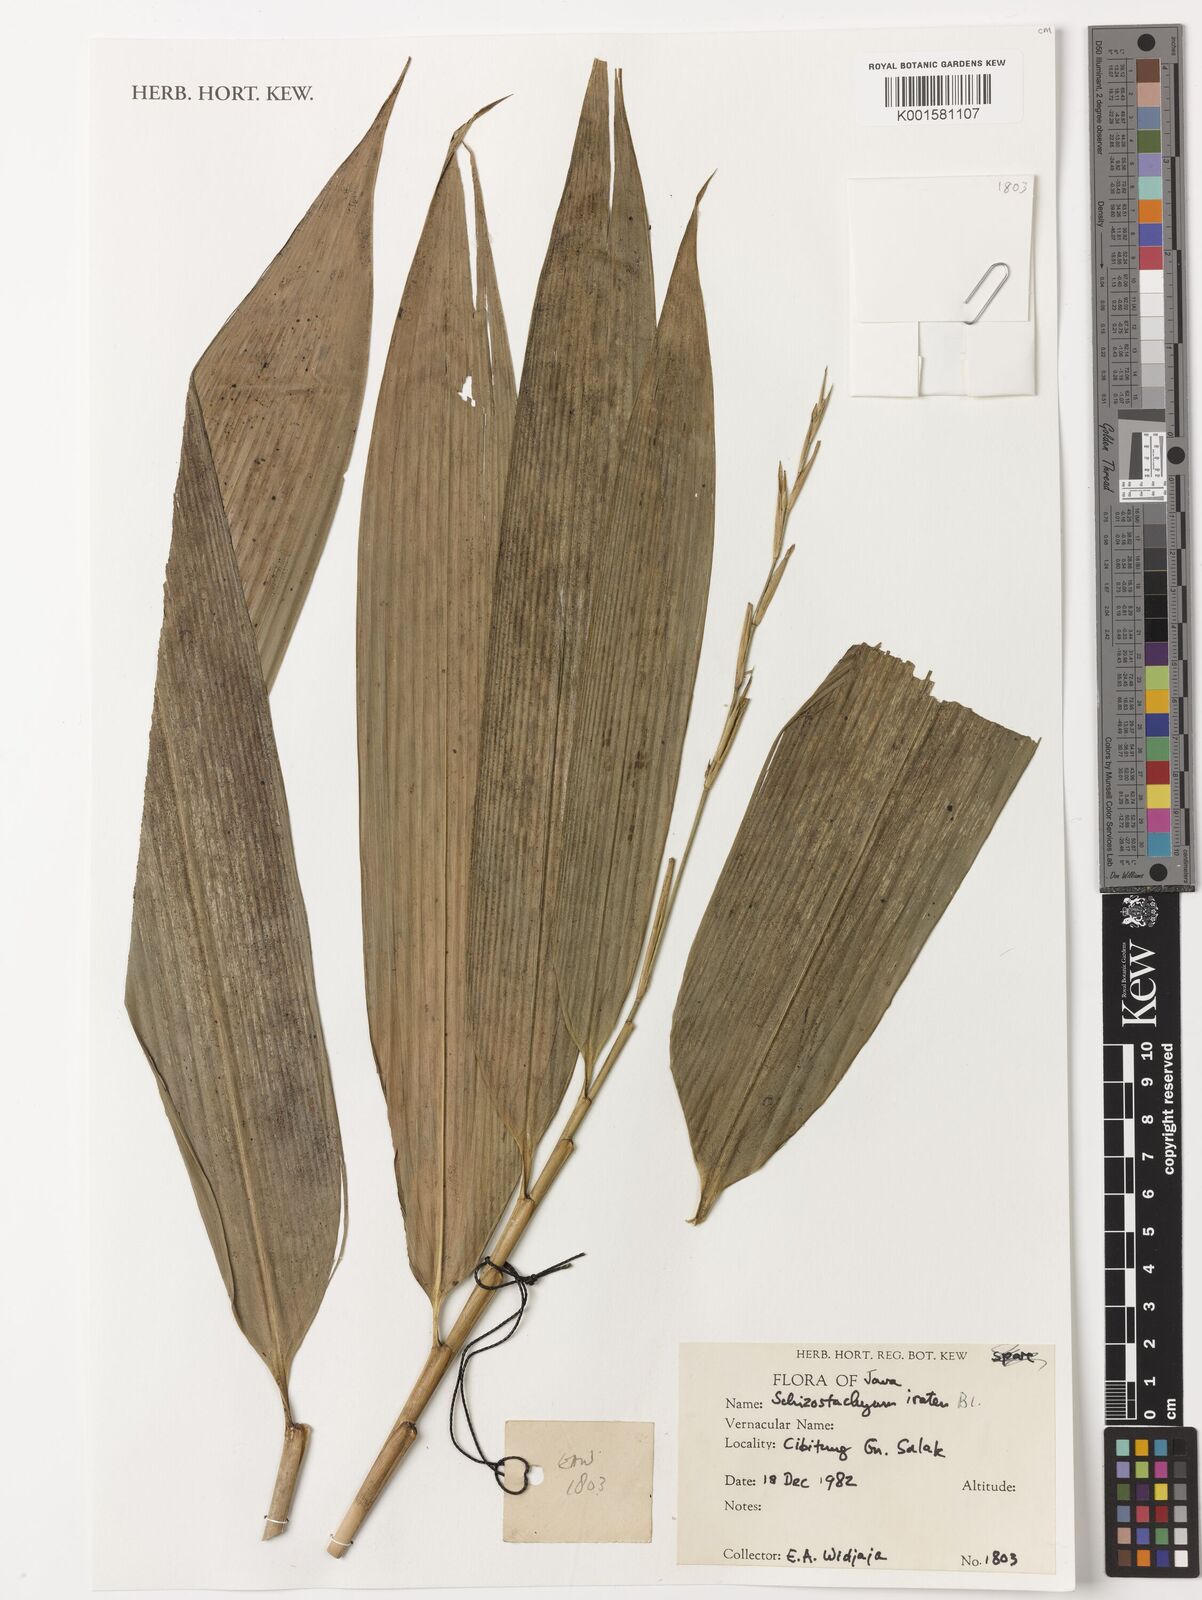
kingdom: Plantae
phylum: Tracheophyta
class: Liliopsida
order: Poales
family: Poaceae
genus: Schizostachyum
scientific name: Schizostachyum iraten
